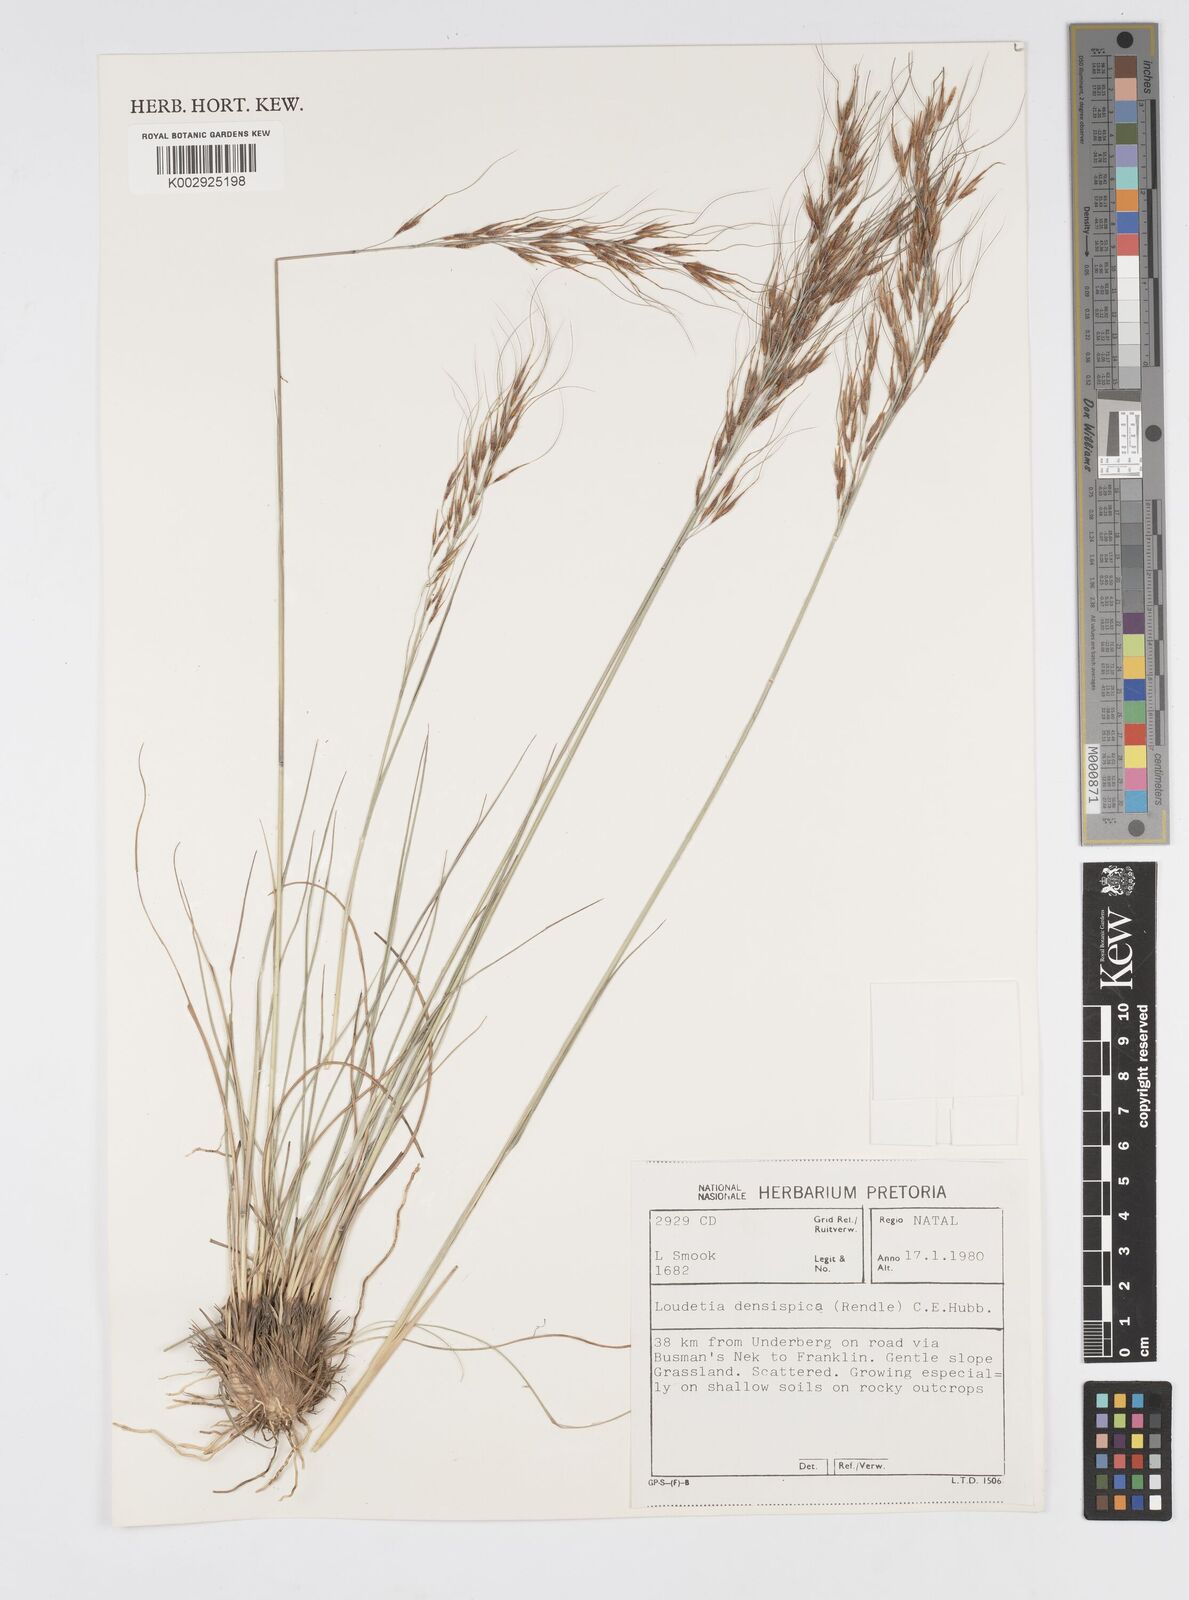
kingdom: Plantae
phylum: Tracheophyta
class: Liliopsida
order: Poales
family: Poaceae
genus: Loudetia
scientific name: Loudetia simplex
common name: Common russet grass
